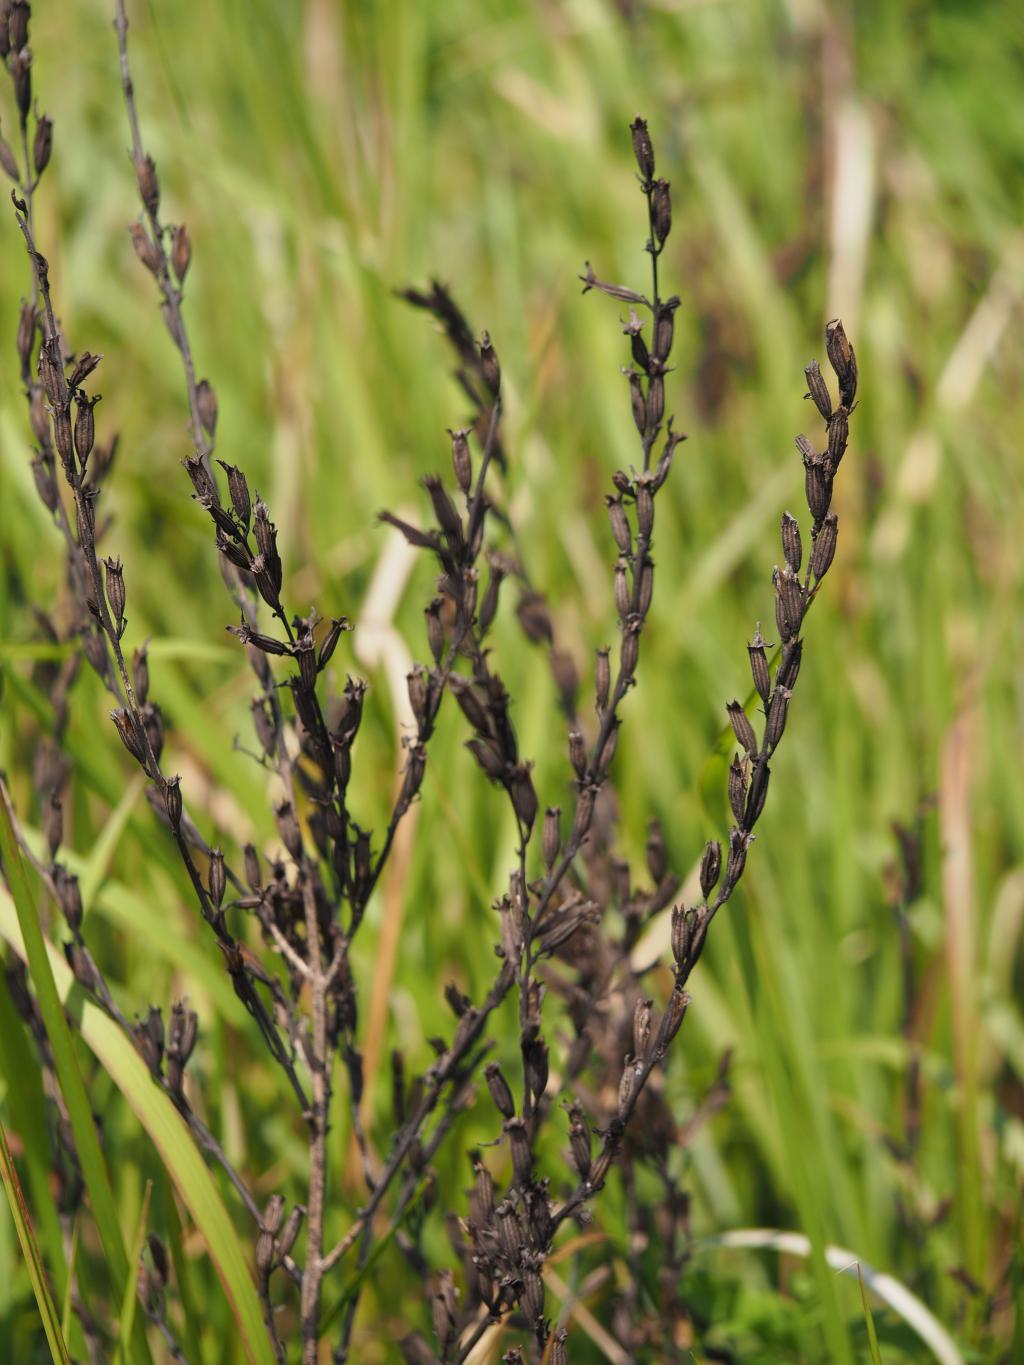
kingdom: Plantae
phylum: Tracheophyta
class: Magnoliopsida
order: Lamiales
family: Orobanchaceae
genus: Siphonostegia
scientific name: Siphonostegia chinensis
